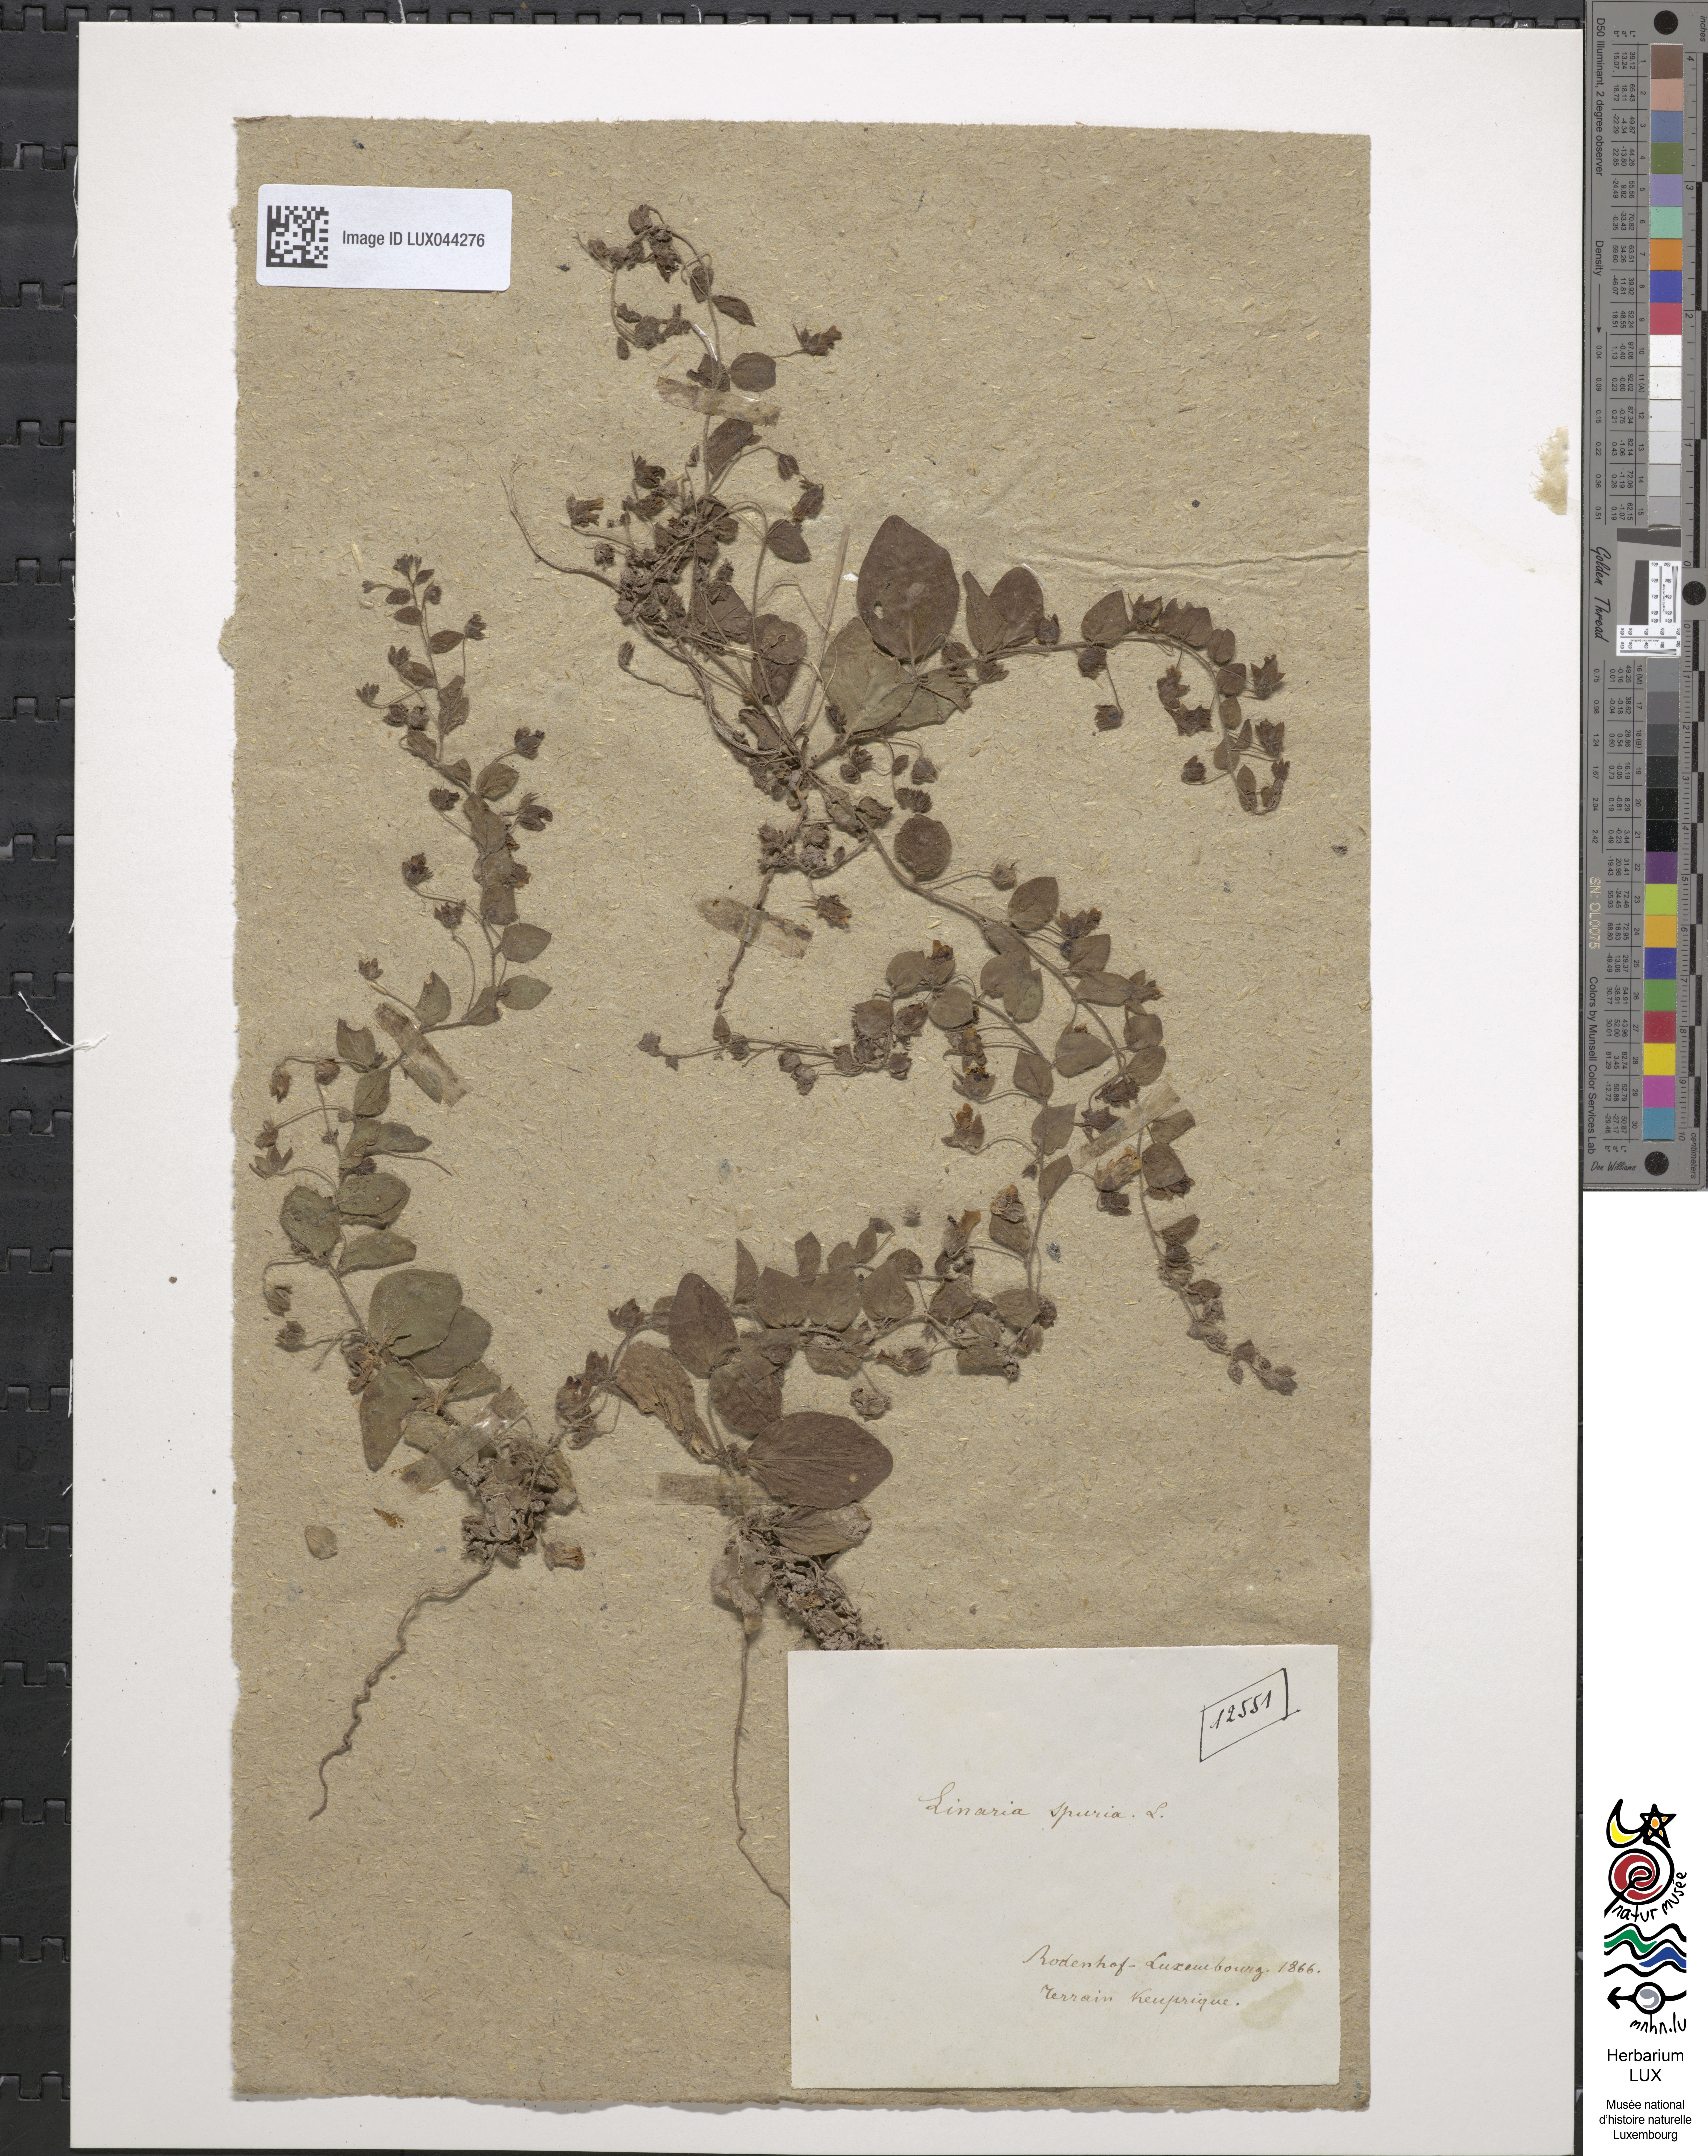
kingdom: Plantae
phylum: Tracheophyta
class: Magnoliopsida
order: Lamiales
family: Plantaginaceae
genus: Kickxia
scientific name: Kickxia spuria
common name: Round-leaved fluellen
